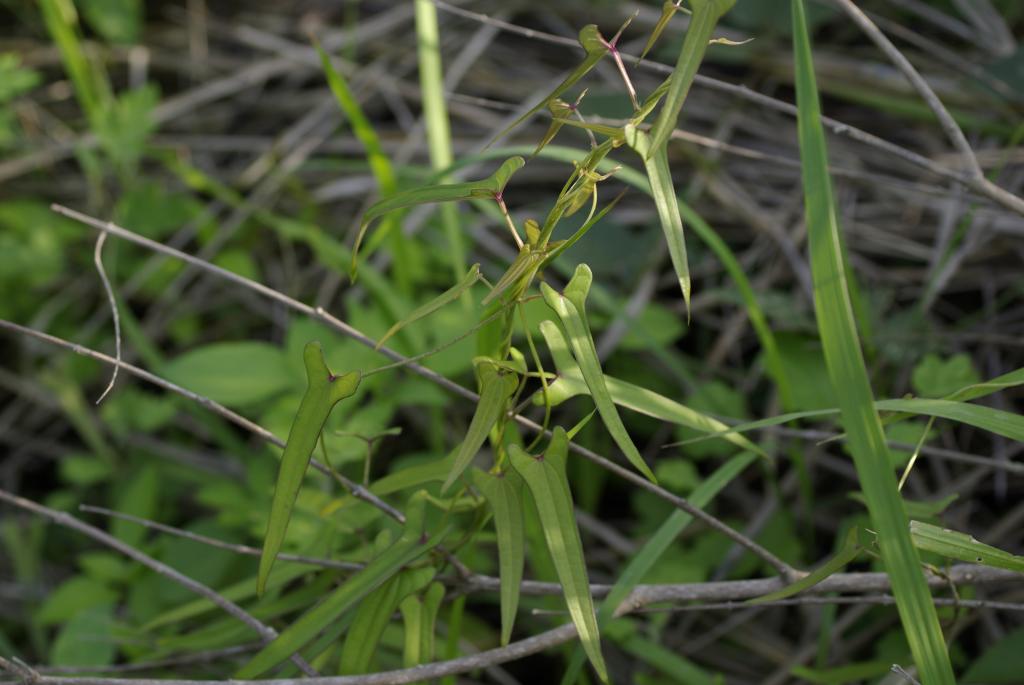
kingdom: Plantae
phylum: Tracheophyta
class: Liliopsida
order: Dioscoreales
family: Dioscoreaceae
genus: Dioscorea
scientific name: Dioscorea japonica
